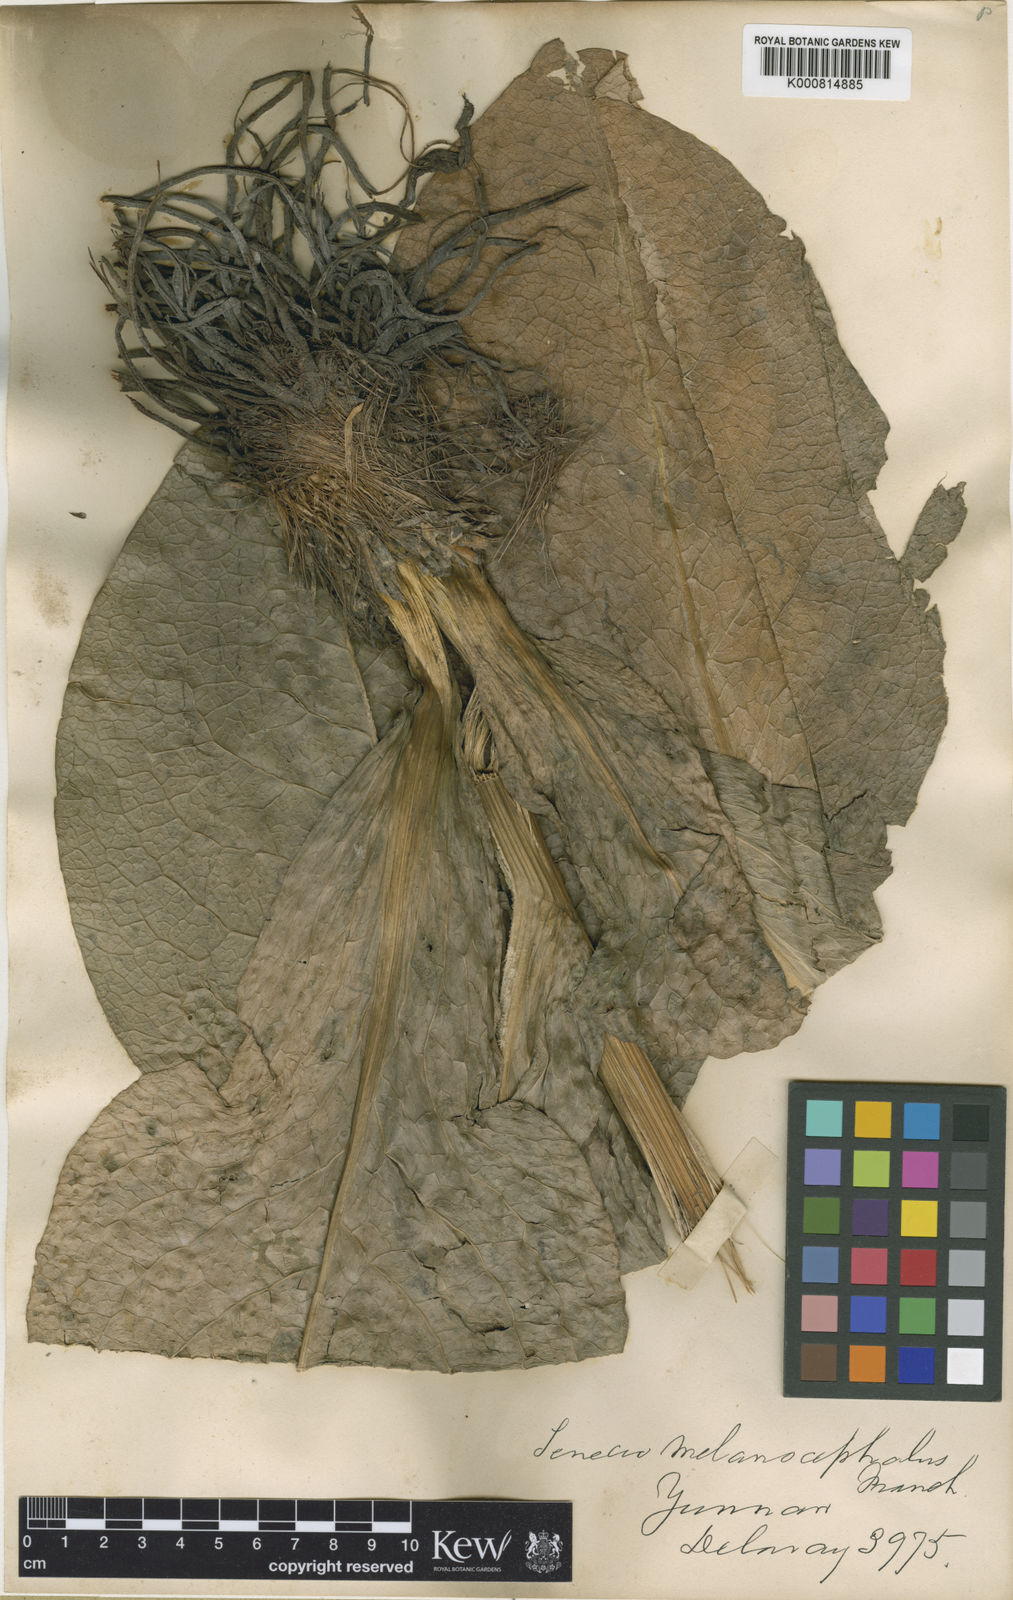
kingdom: Plantae
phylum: Tracheophyta
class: Magnoliopsida
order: Asterales
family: Asteraceae
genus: Ligularia
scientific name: Ligularia melanocephala
